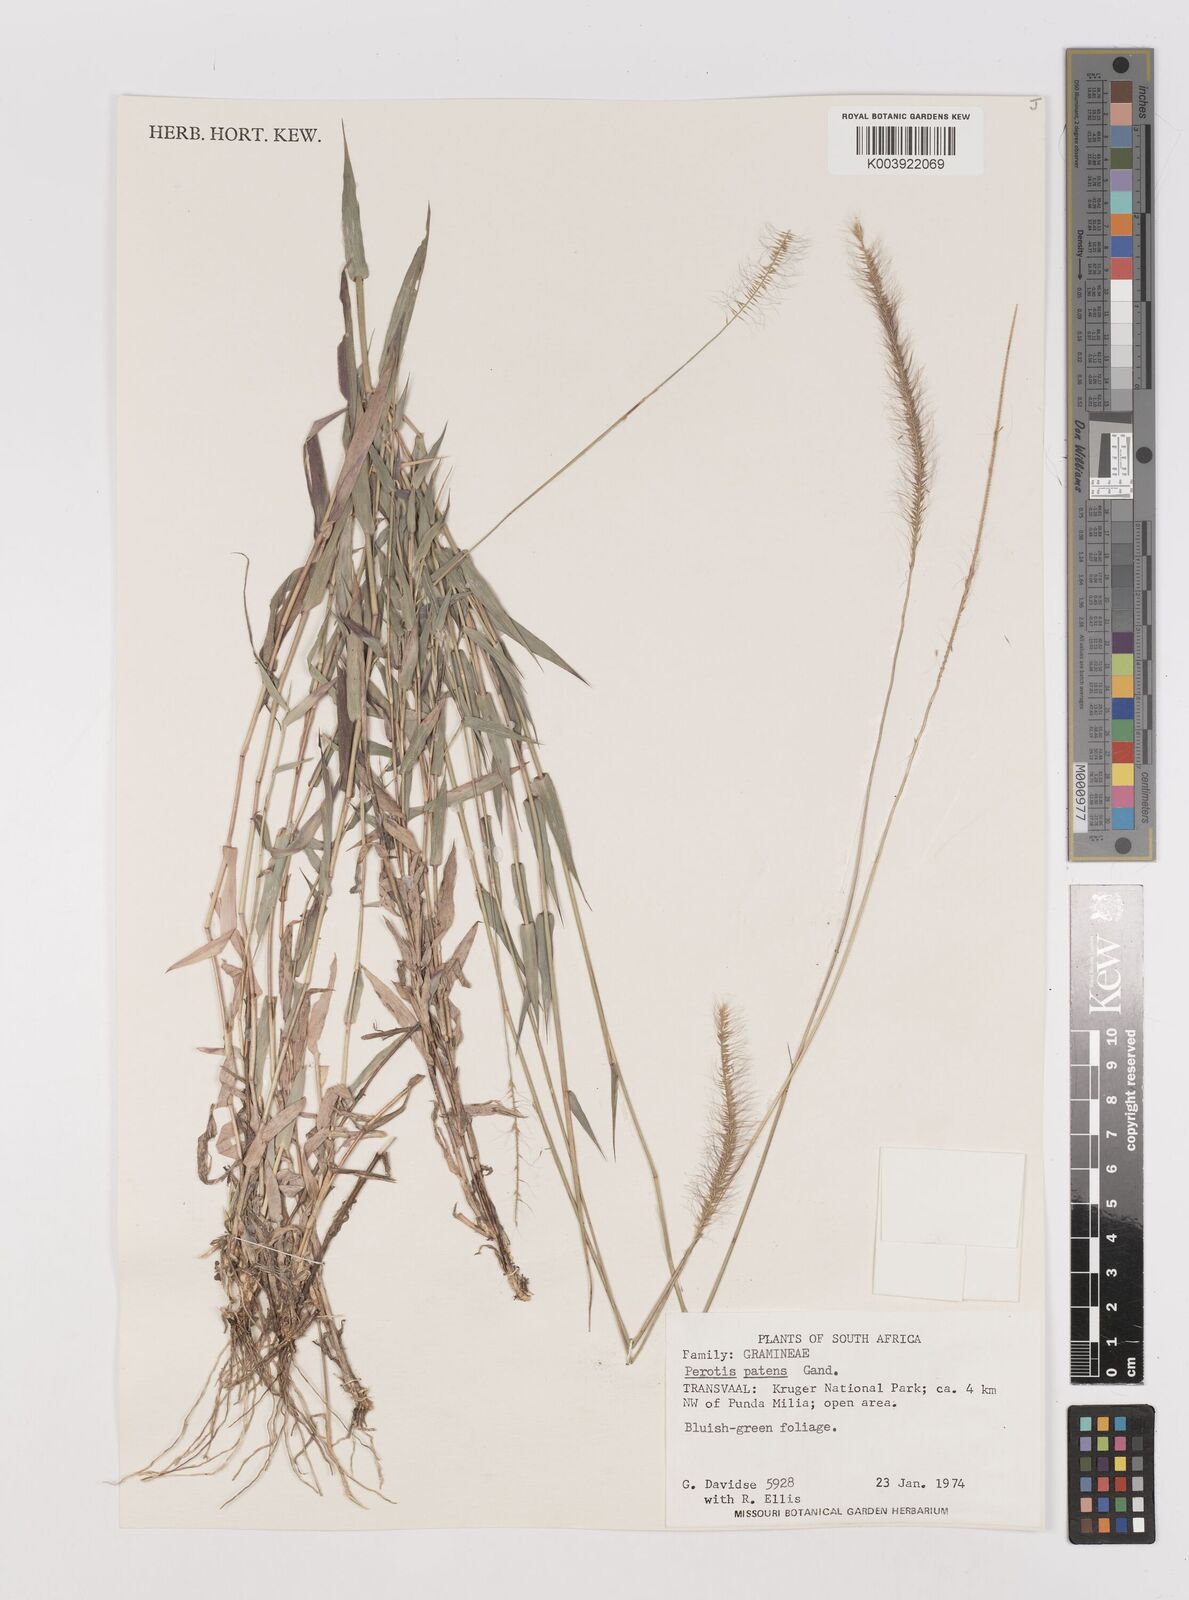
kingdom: Plantae
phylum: Tracheophyta
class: Liliopsida
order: Poales
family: Poaceae
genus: Perotis
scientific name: Perotis patens
